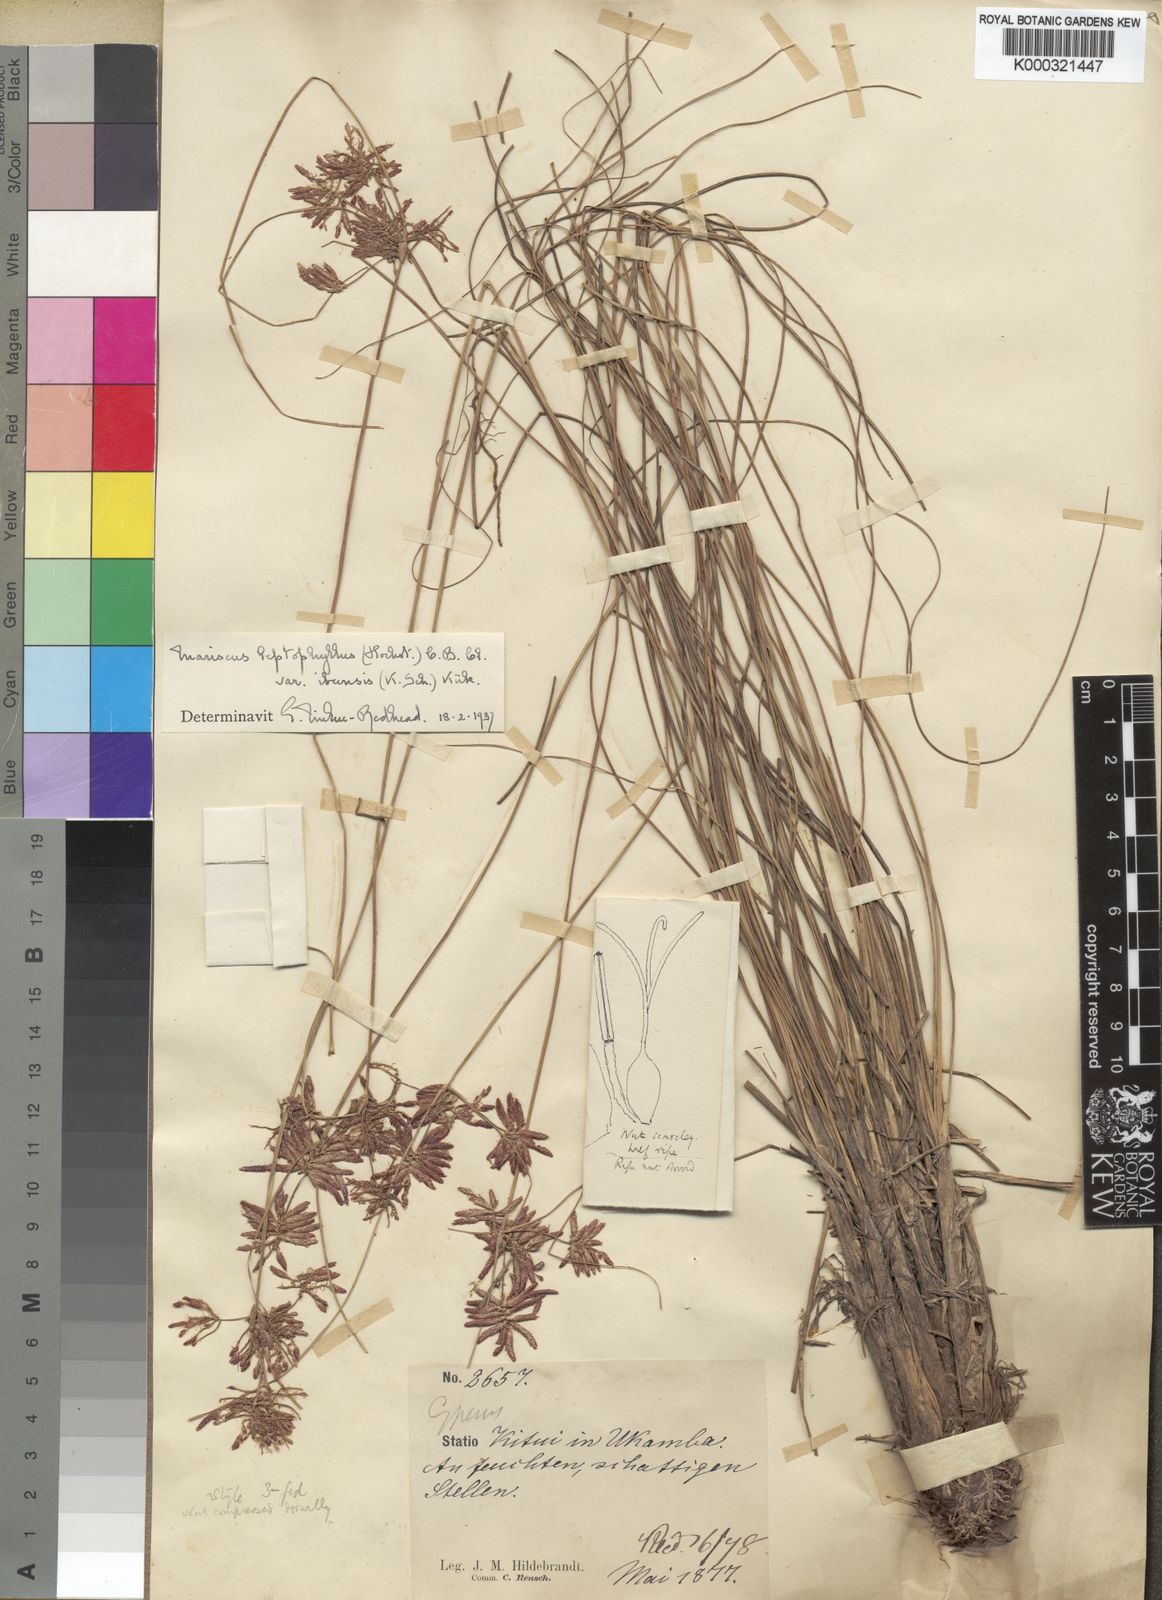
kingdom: Plantae
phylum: Tracheophyta
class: Liliopsida
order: Poales
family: Cyperaceae
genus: Cyperus
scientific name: Cyperus amauropus
